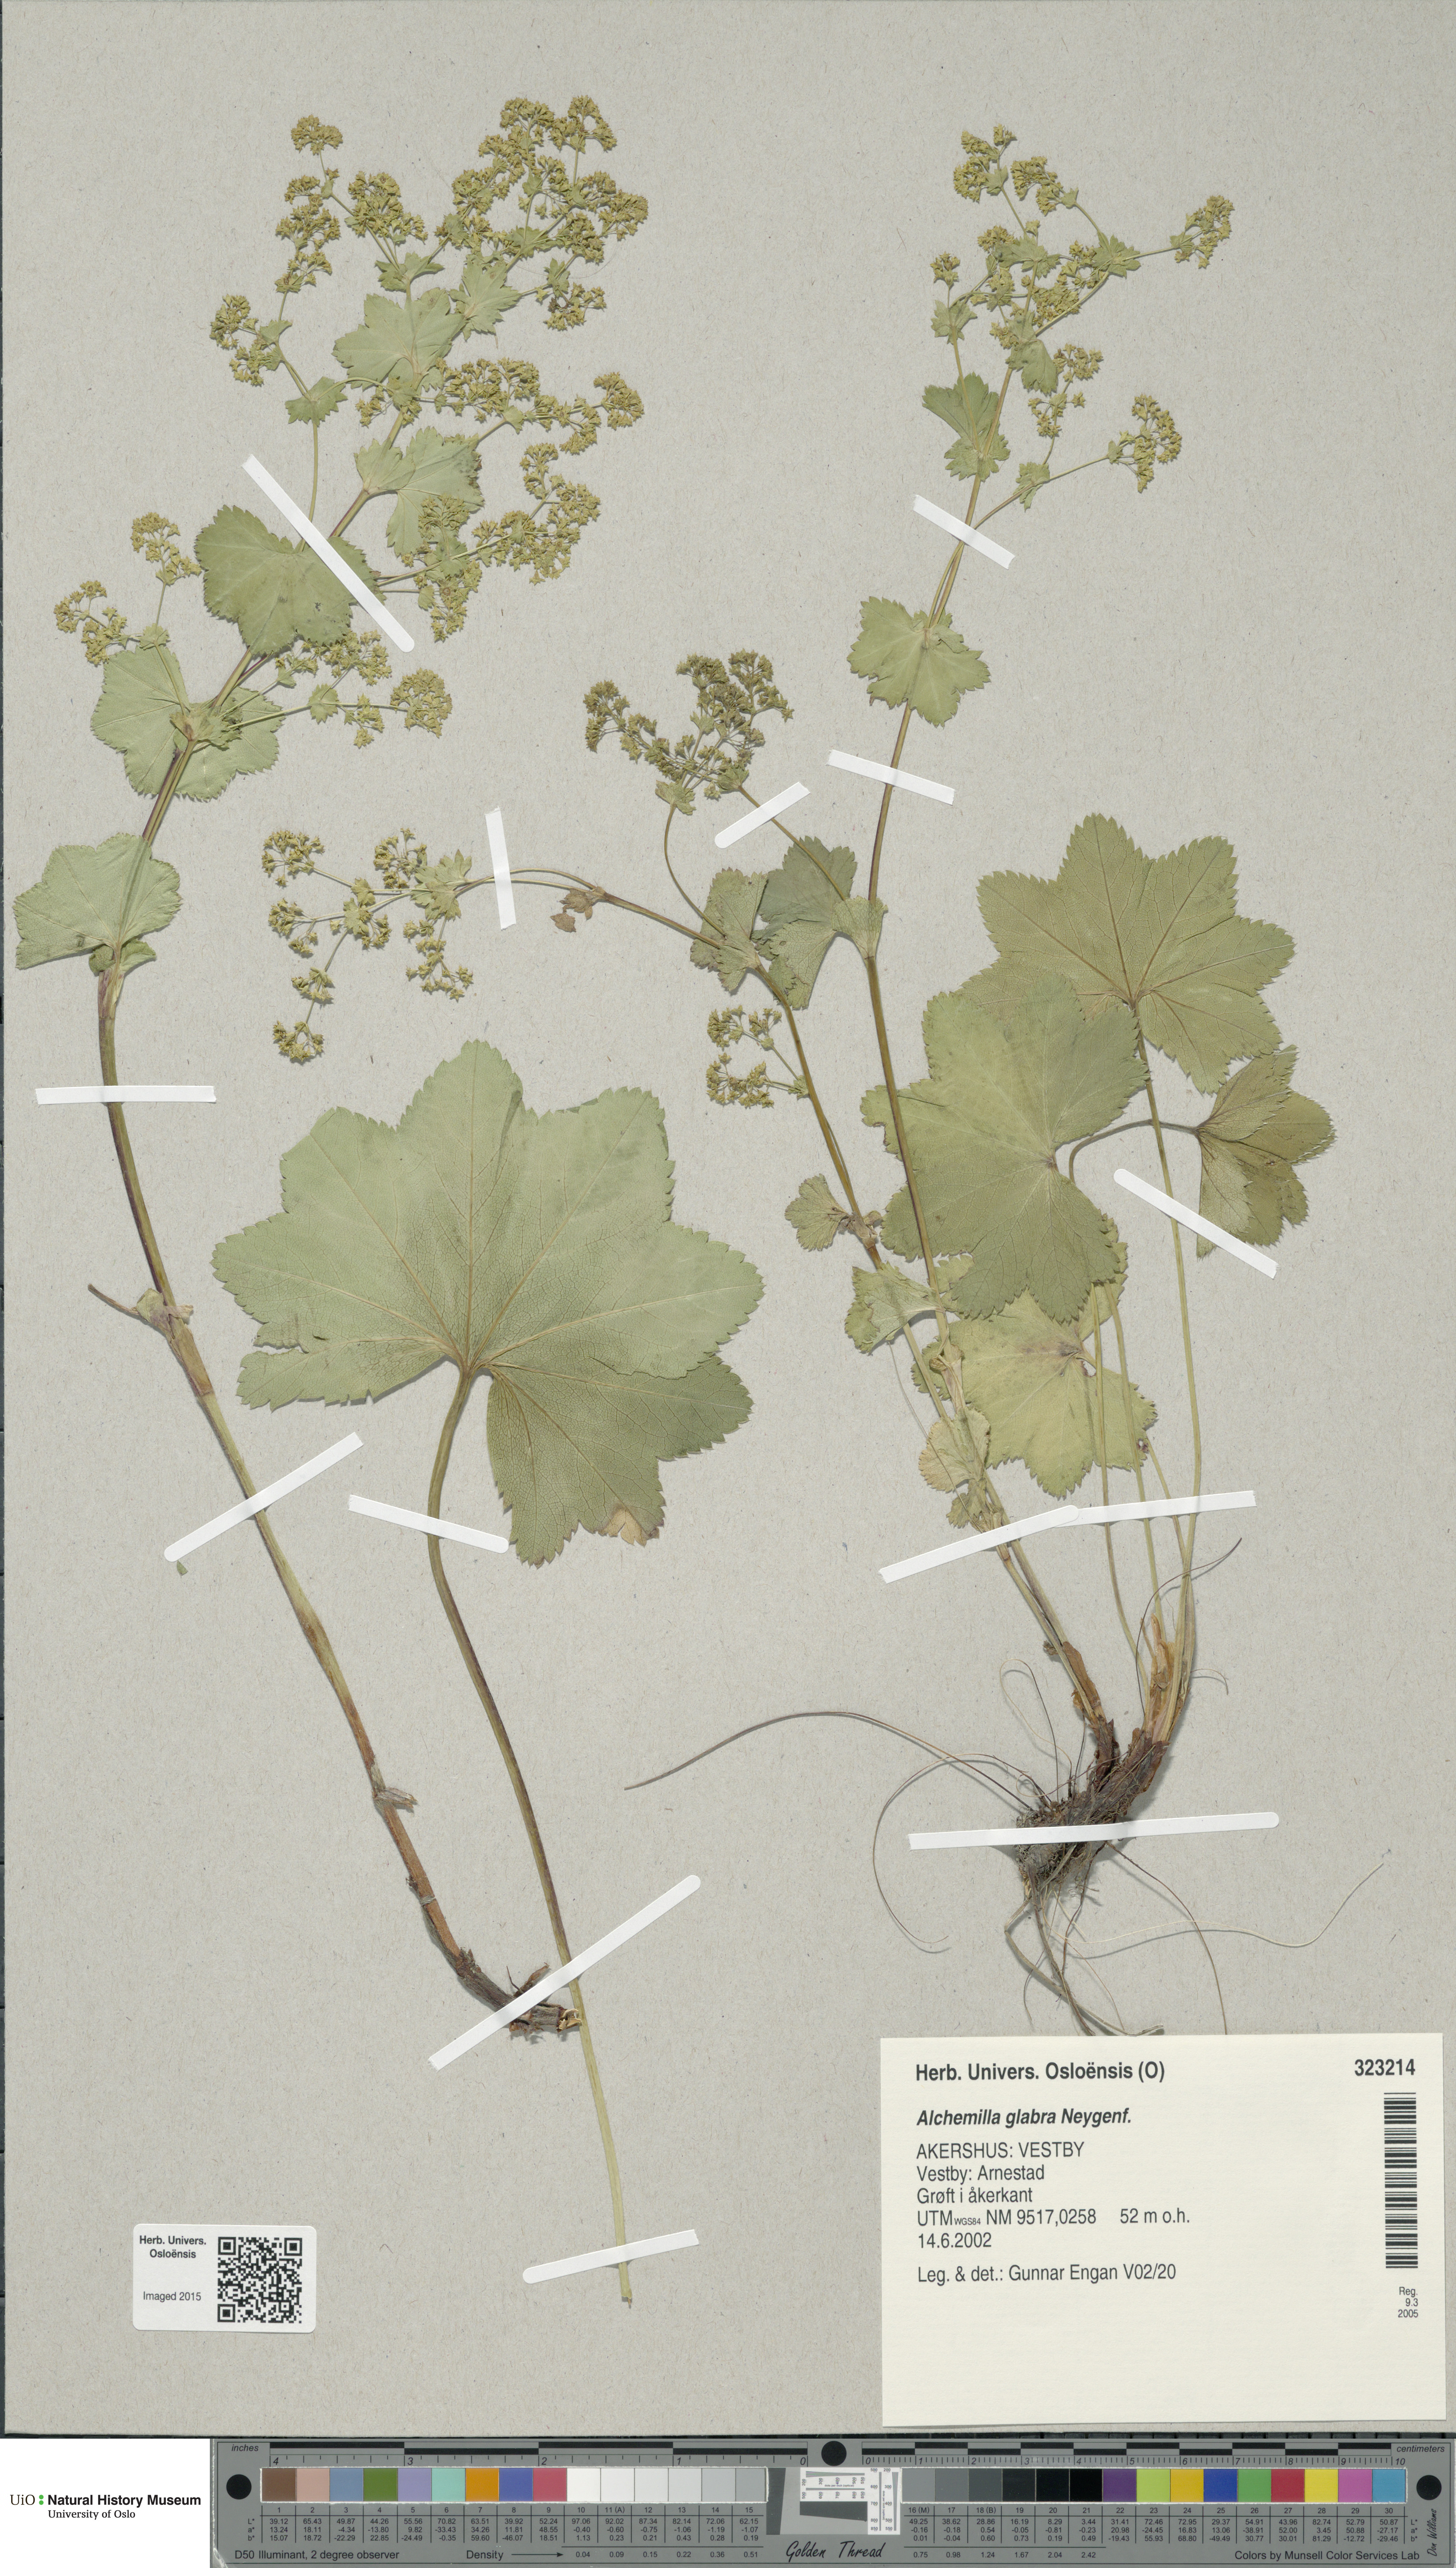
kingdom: Plantae
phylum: Tracheophyta
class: Magnoliopsida
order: Rosales
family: Rosaceae
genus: Alchemilla
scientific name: Alchemilla glabra
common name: Smooth lady's-mantle
